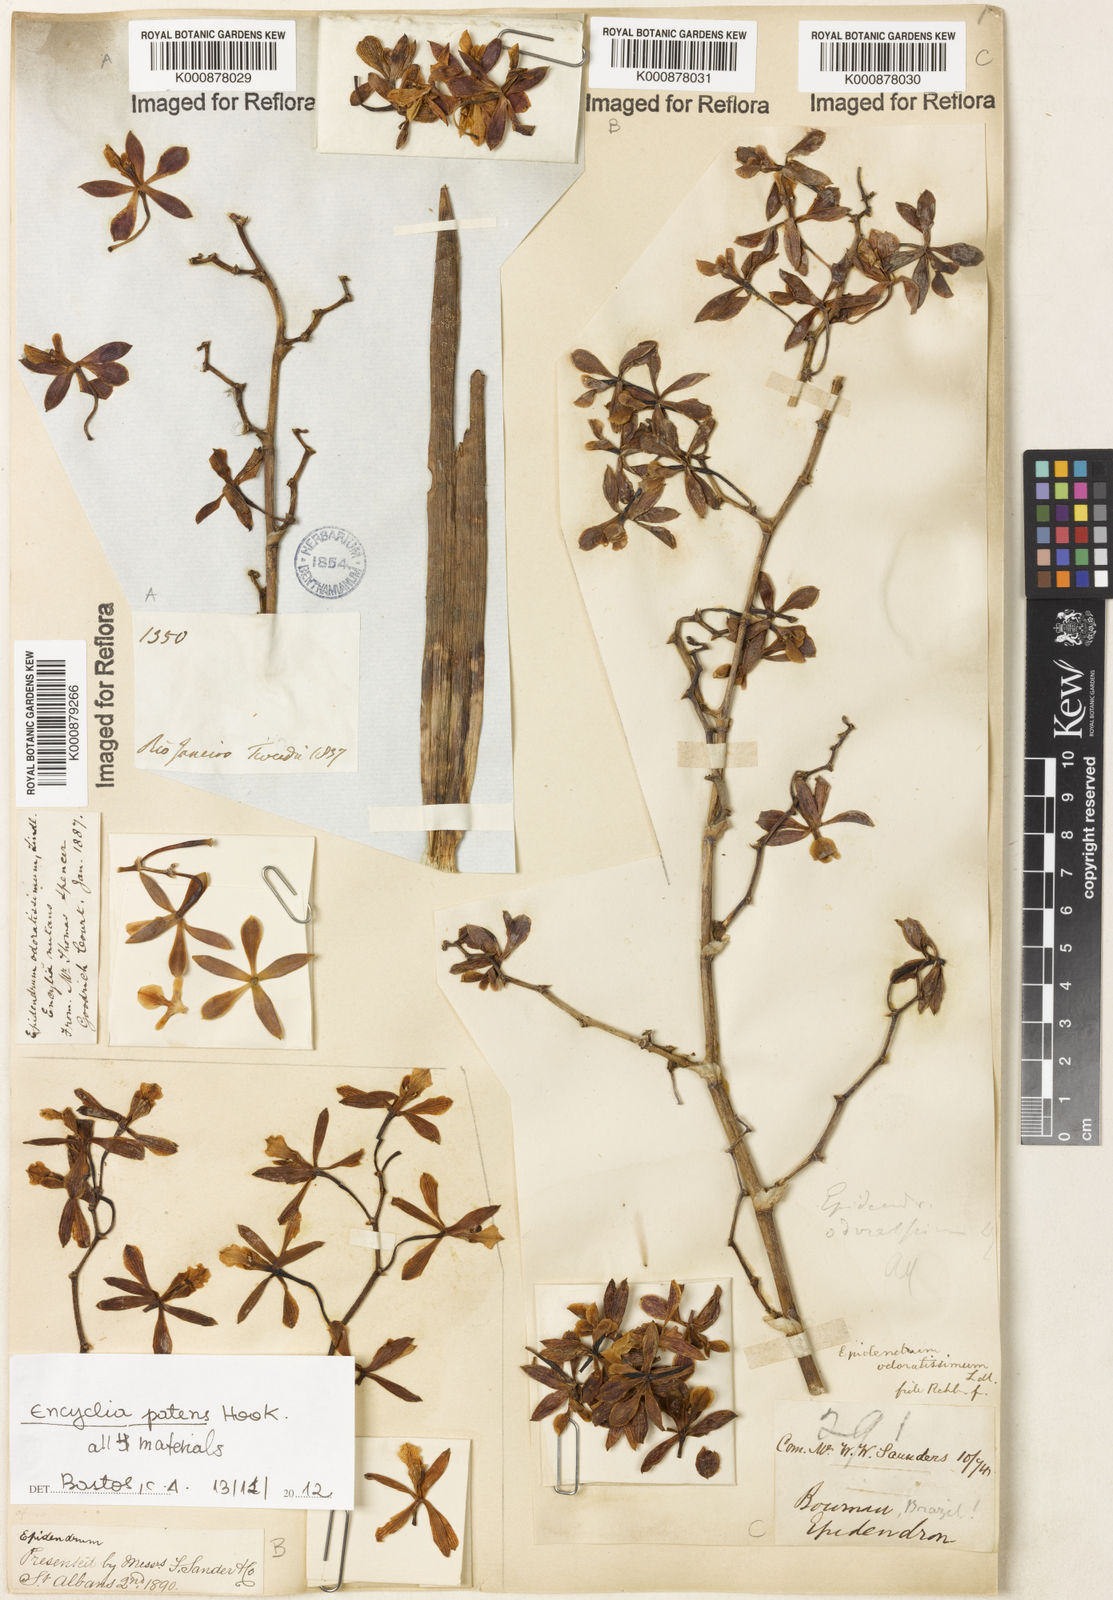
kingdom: Plantae
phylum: Tracheophyta
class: Liliopsida
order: Asparagales
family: Orchidaceae
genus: Encyclia
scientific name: Encyclia patens
